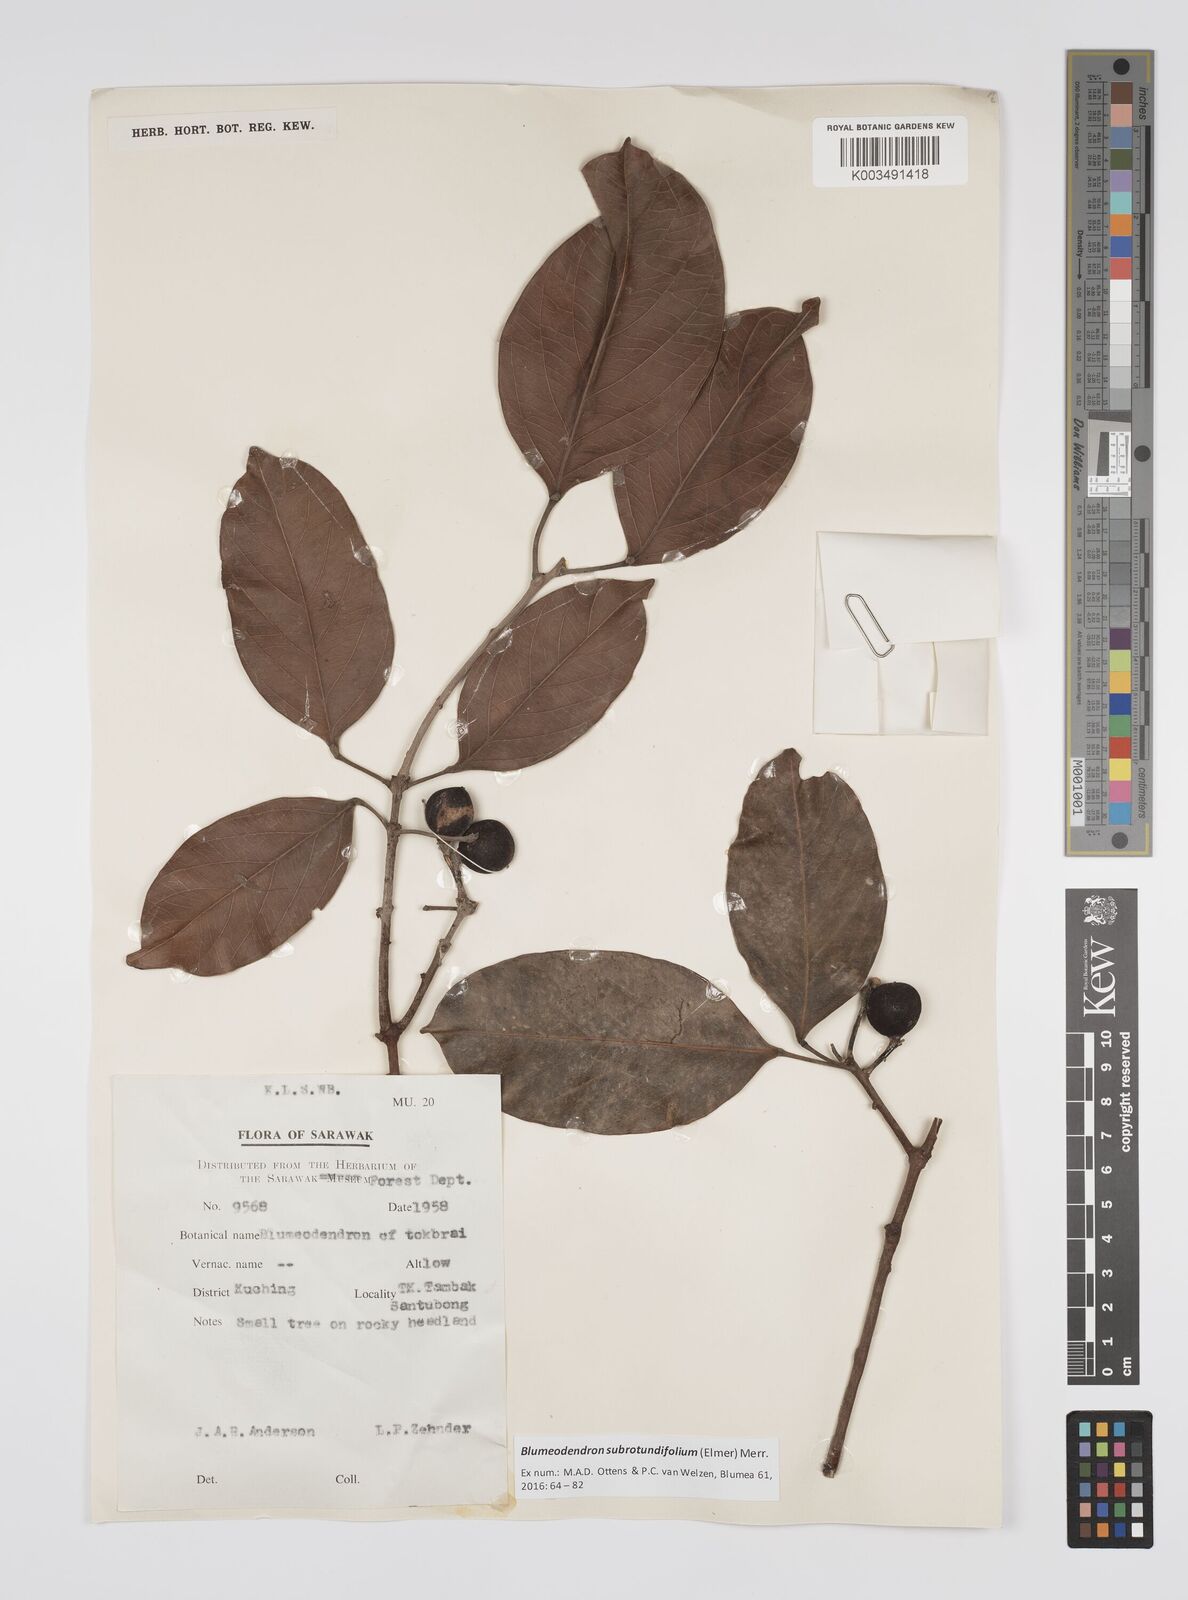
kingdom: Plantae
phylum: Tracheophyta
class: Magnoliopsida
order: Malpighiales
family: Euphorbiaceae
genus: Blumeodendron
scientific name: Blumeodendron subrotundifolium
